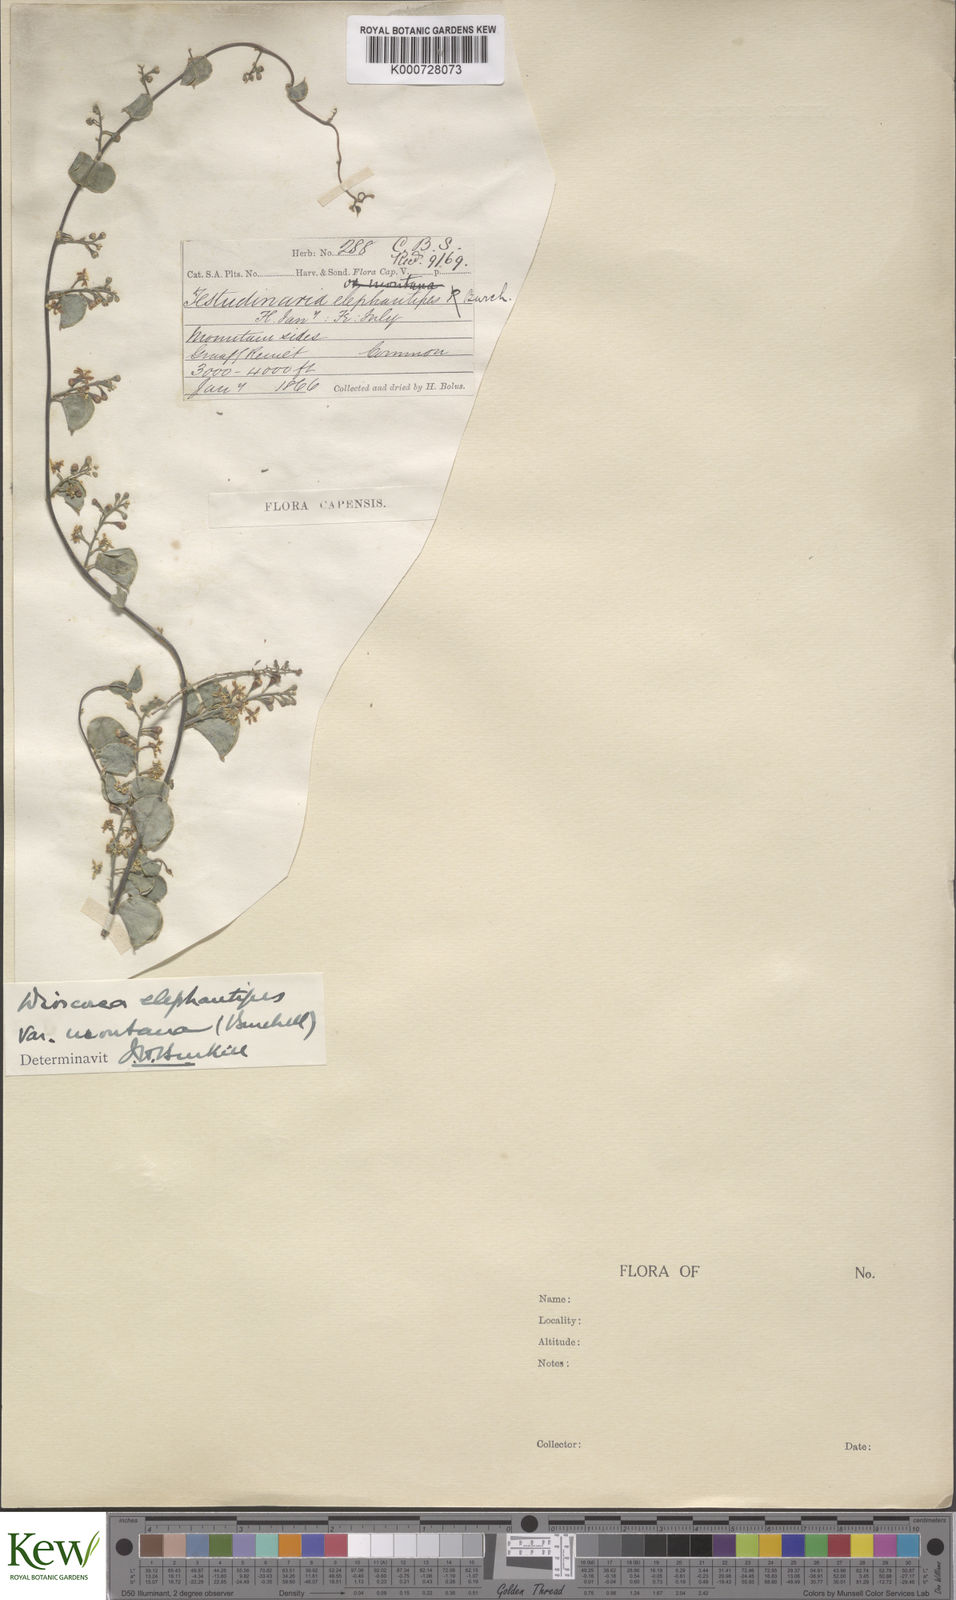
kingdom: Plantae
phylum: Tracheophyta
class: Liliopsida
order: Dioscoreales
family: Dioscoreaceae
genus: Dioscorea
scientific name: Dioscorea
